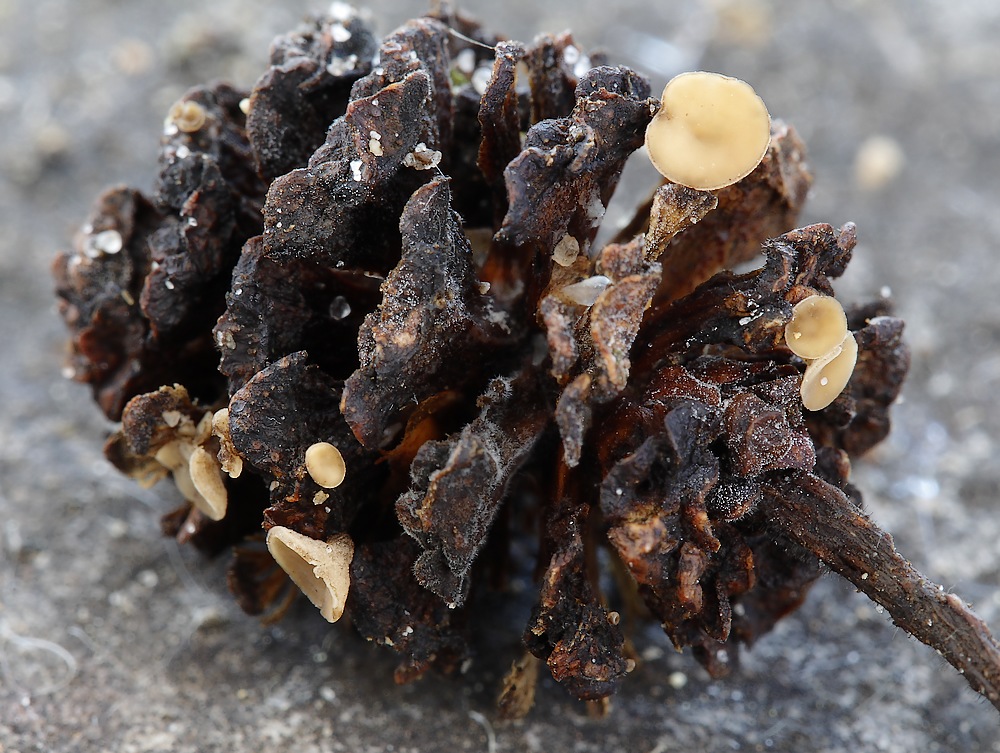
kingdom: Fungi
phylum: Ascomycota
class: Leotiomycetes
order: Helotiales
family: Sclerotiniaceae
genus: Ciboria
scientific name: Ciboria viridifusca
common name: ellekogle-knoldskive
